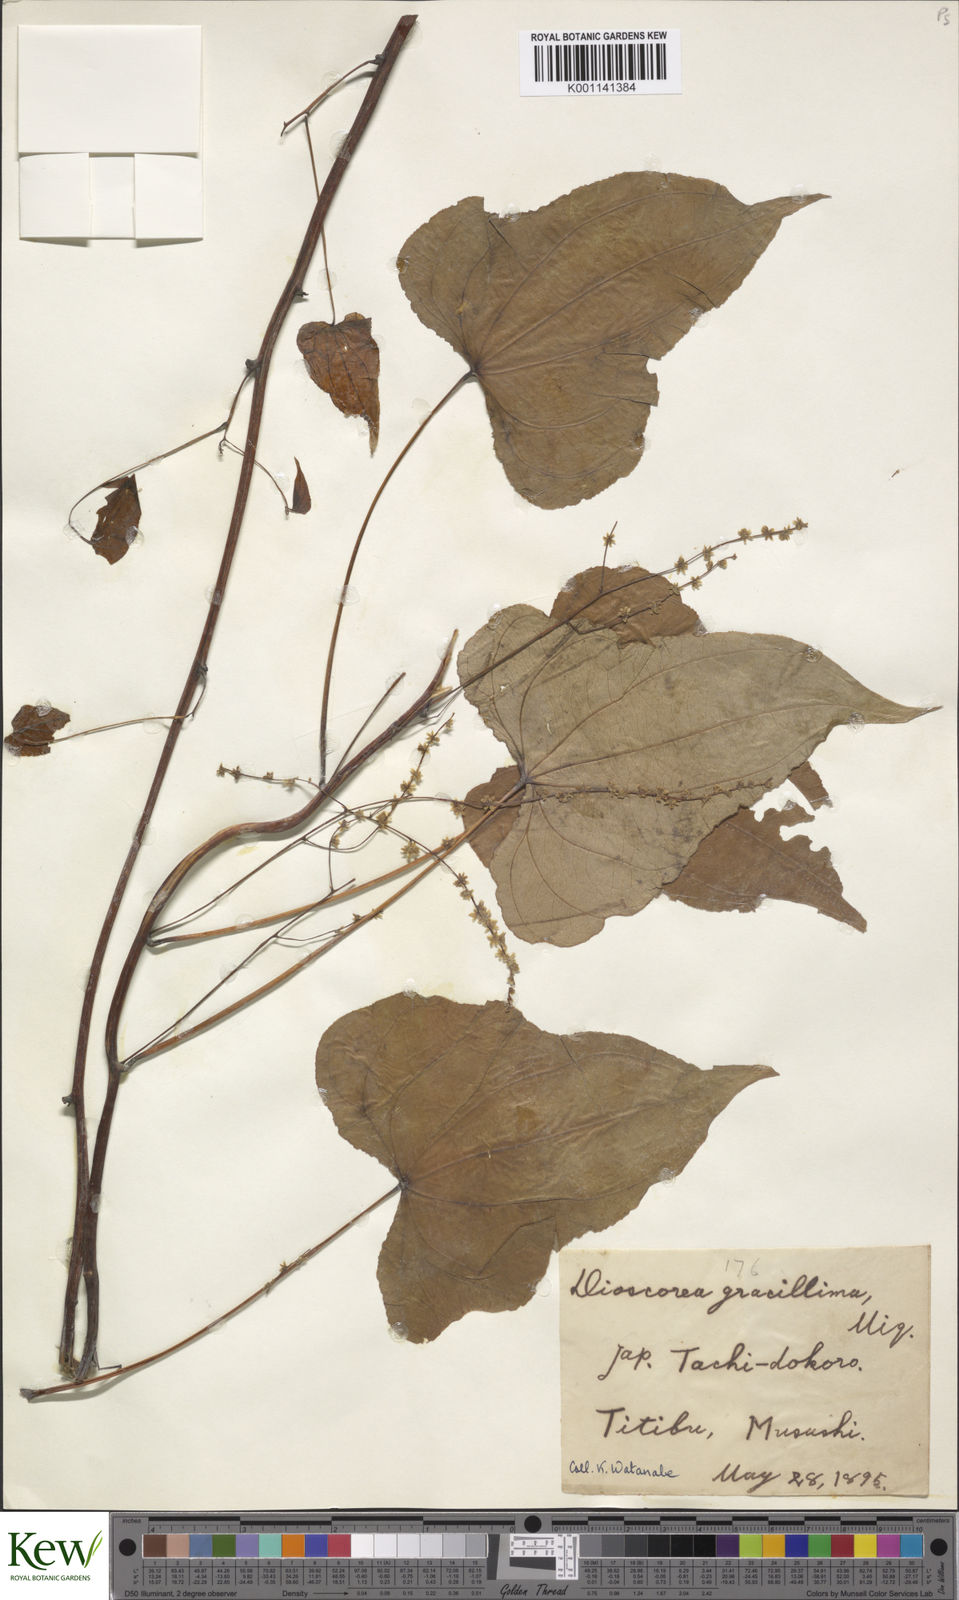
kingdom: Plantae
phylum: Tracheophyta
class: Liliopsida
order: Dioscoreales
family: Dioscoreaceae
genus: Dioscorea
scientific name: Dioscorea gracillima
